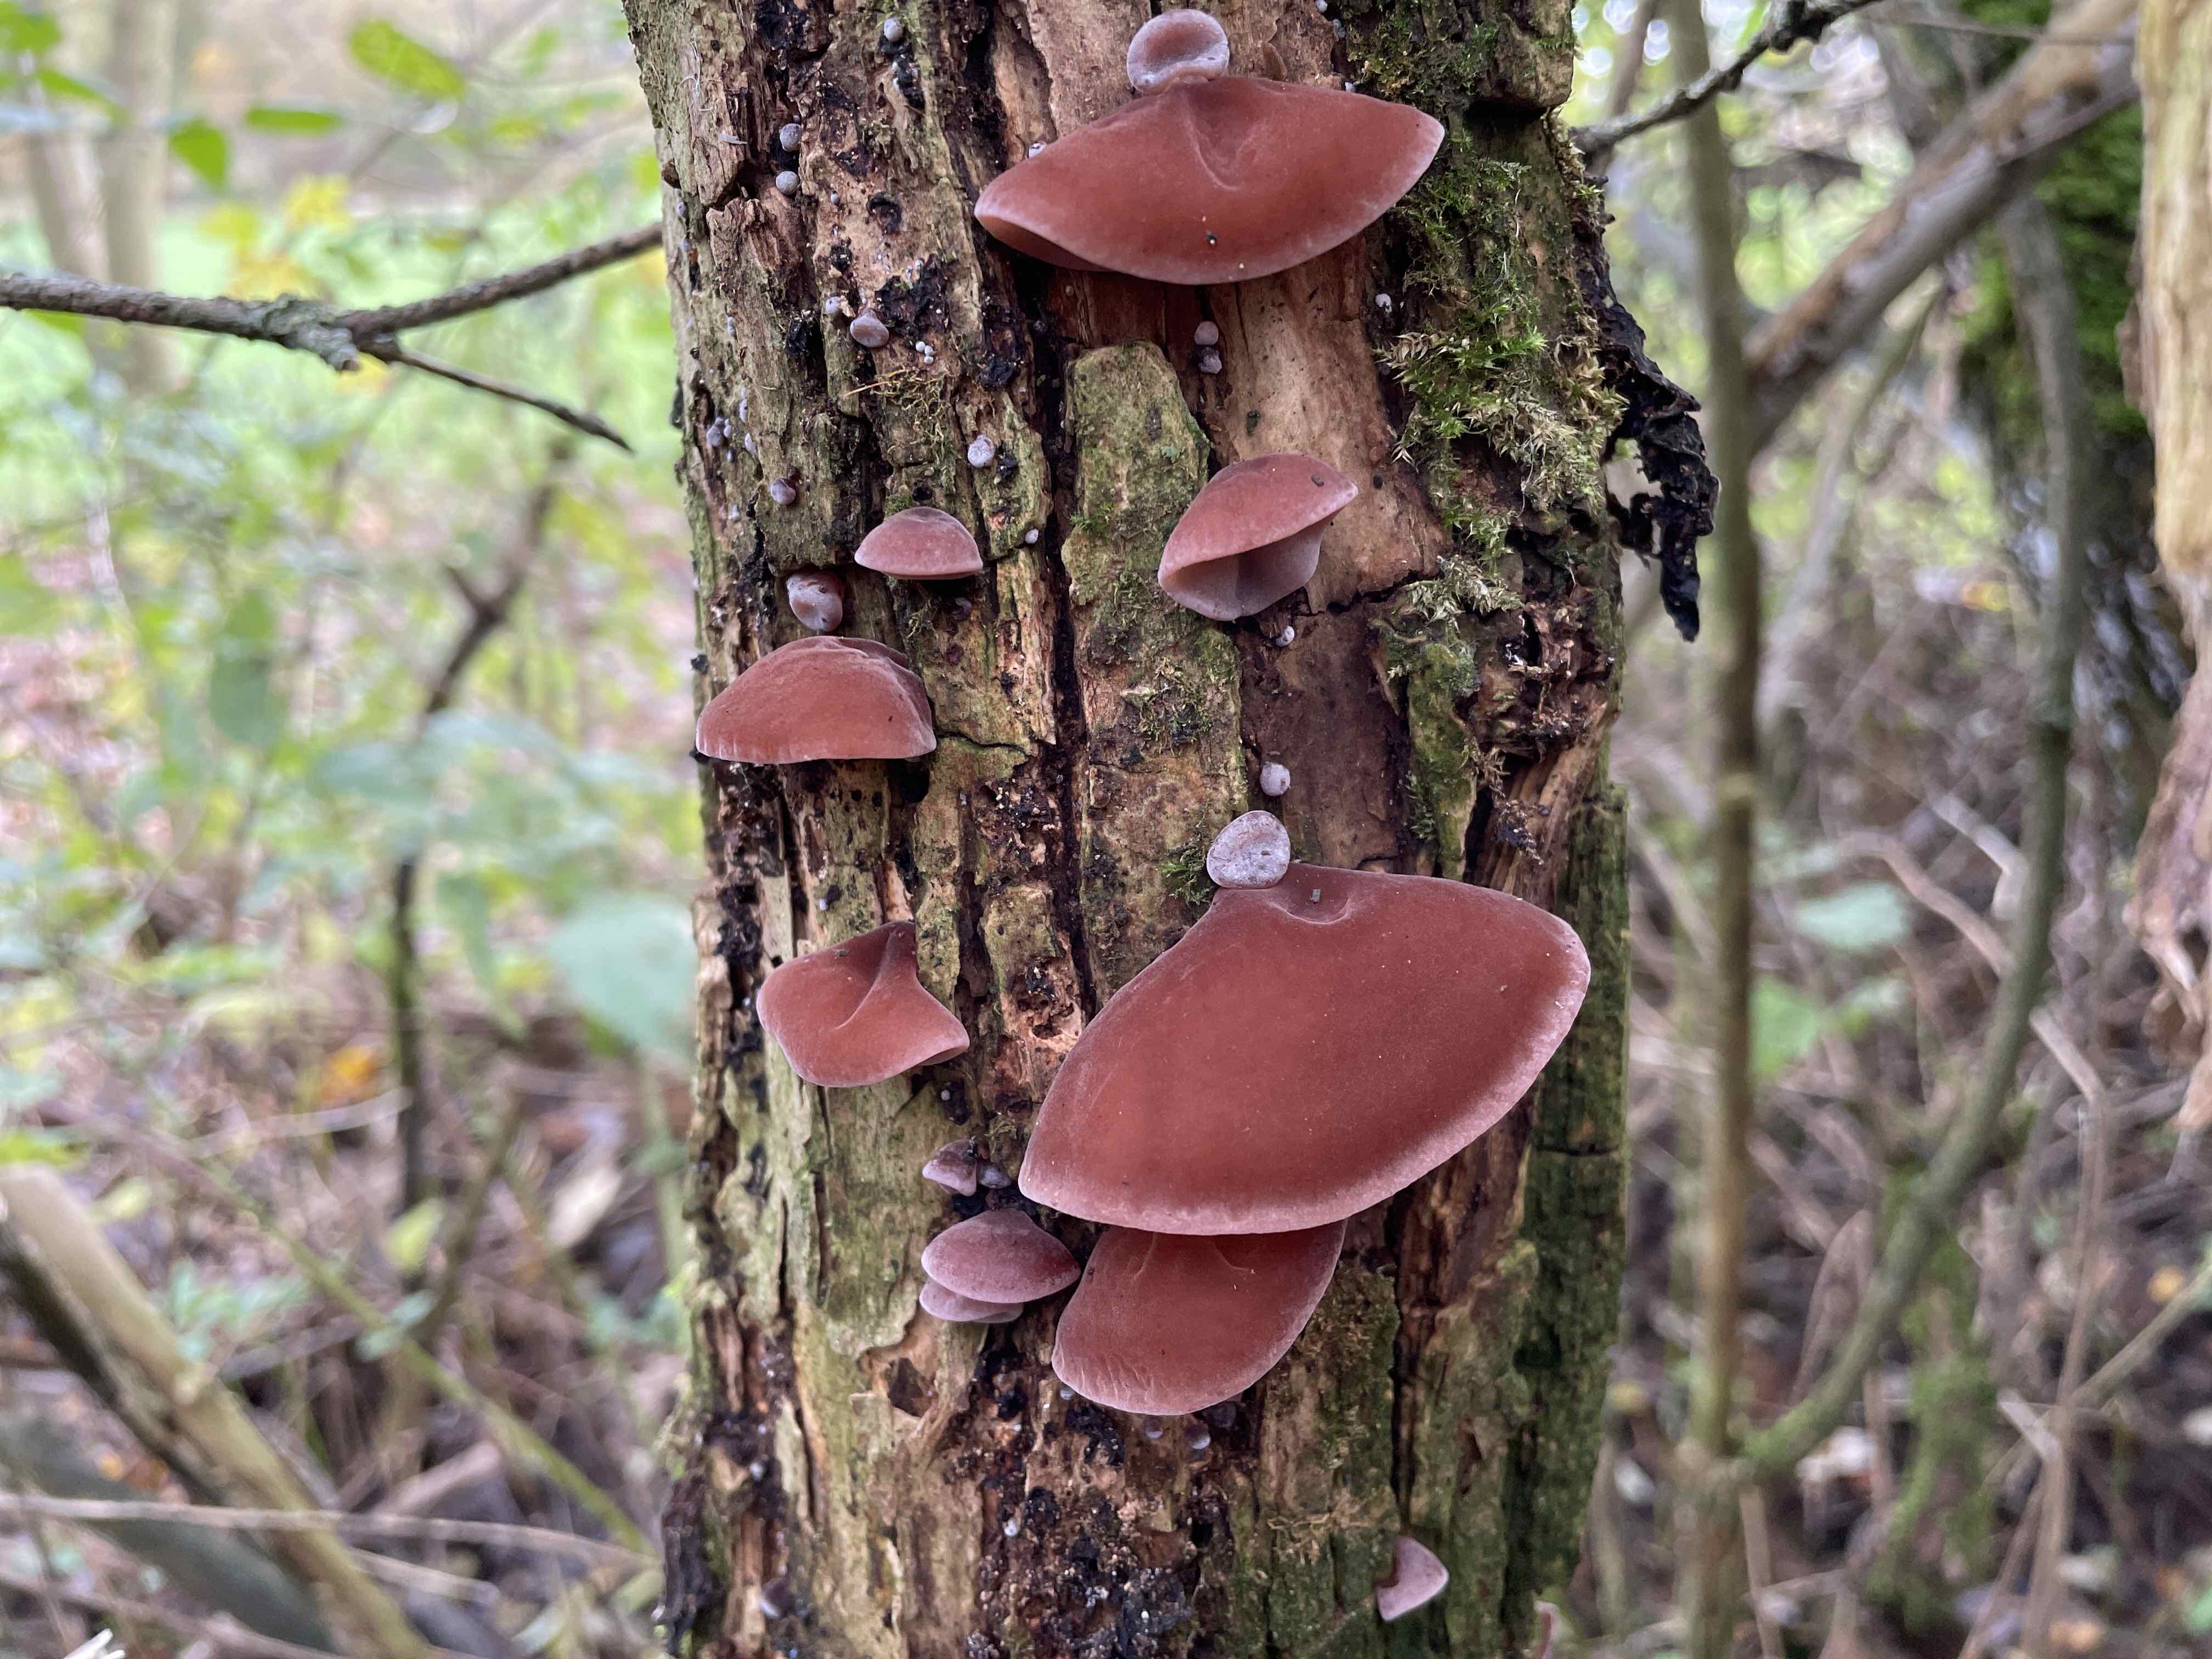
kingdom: Fungi
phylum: Basidiomycota
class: Agaricomycetes
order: Auriculariales
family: Auriculariaceae
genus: Auricularia
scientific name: Auricularia auricula-judae
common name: almindelig judasøre
